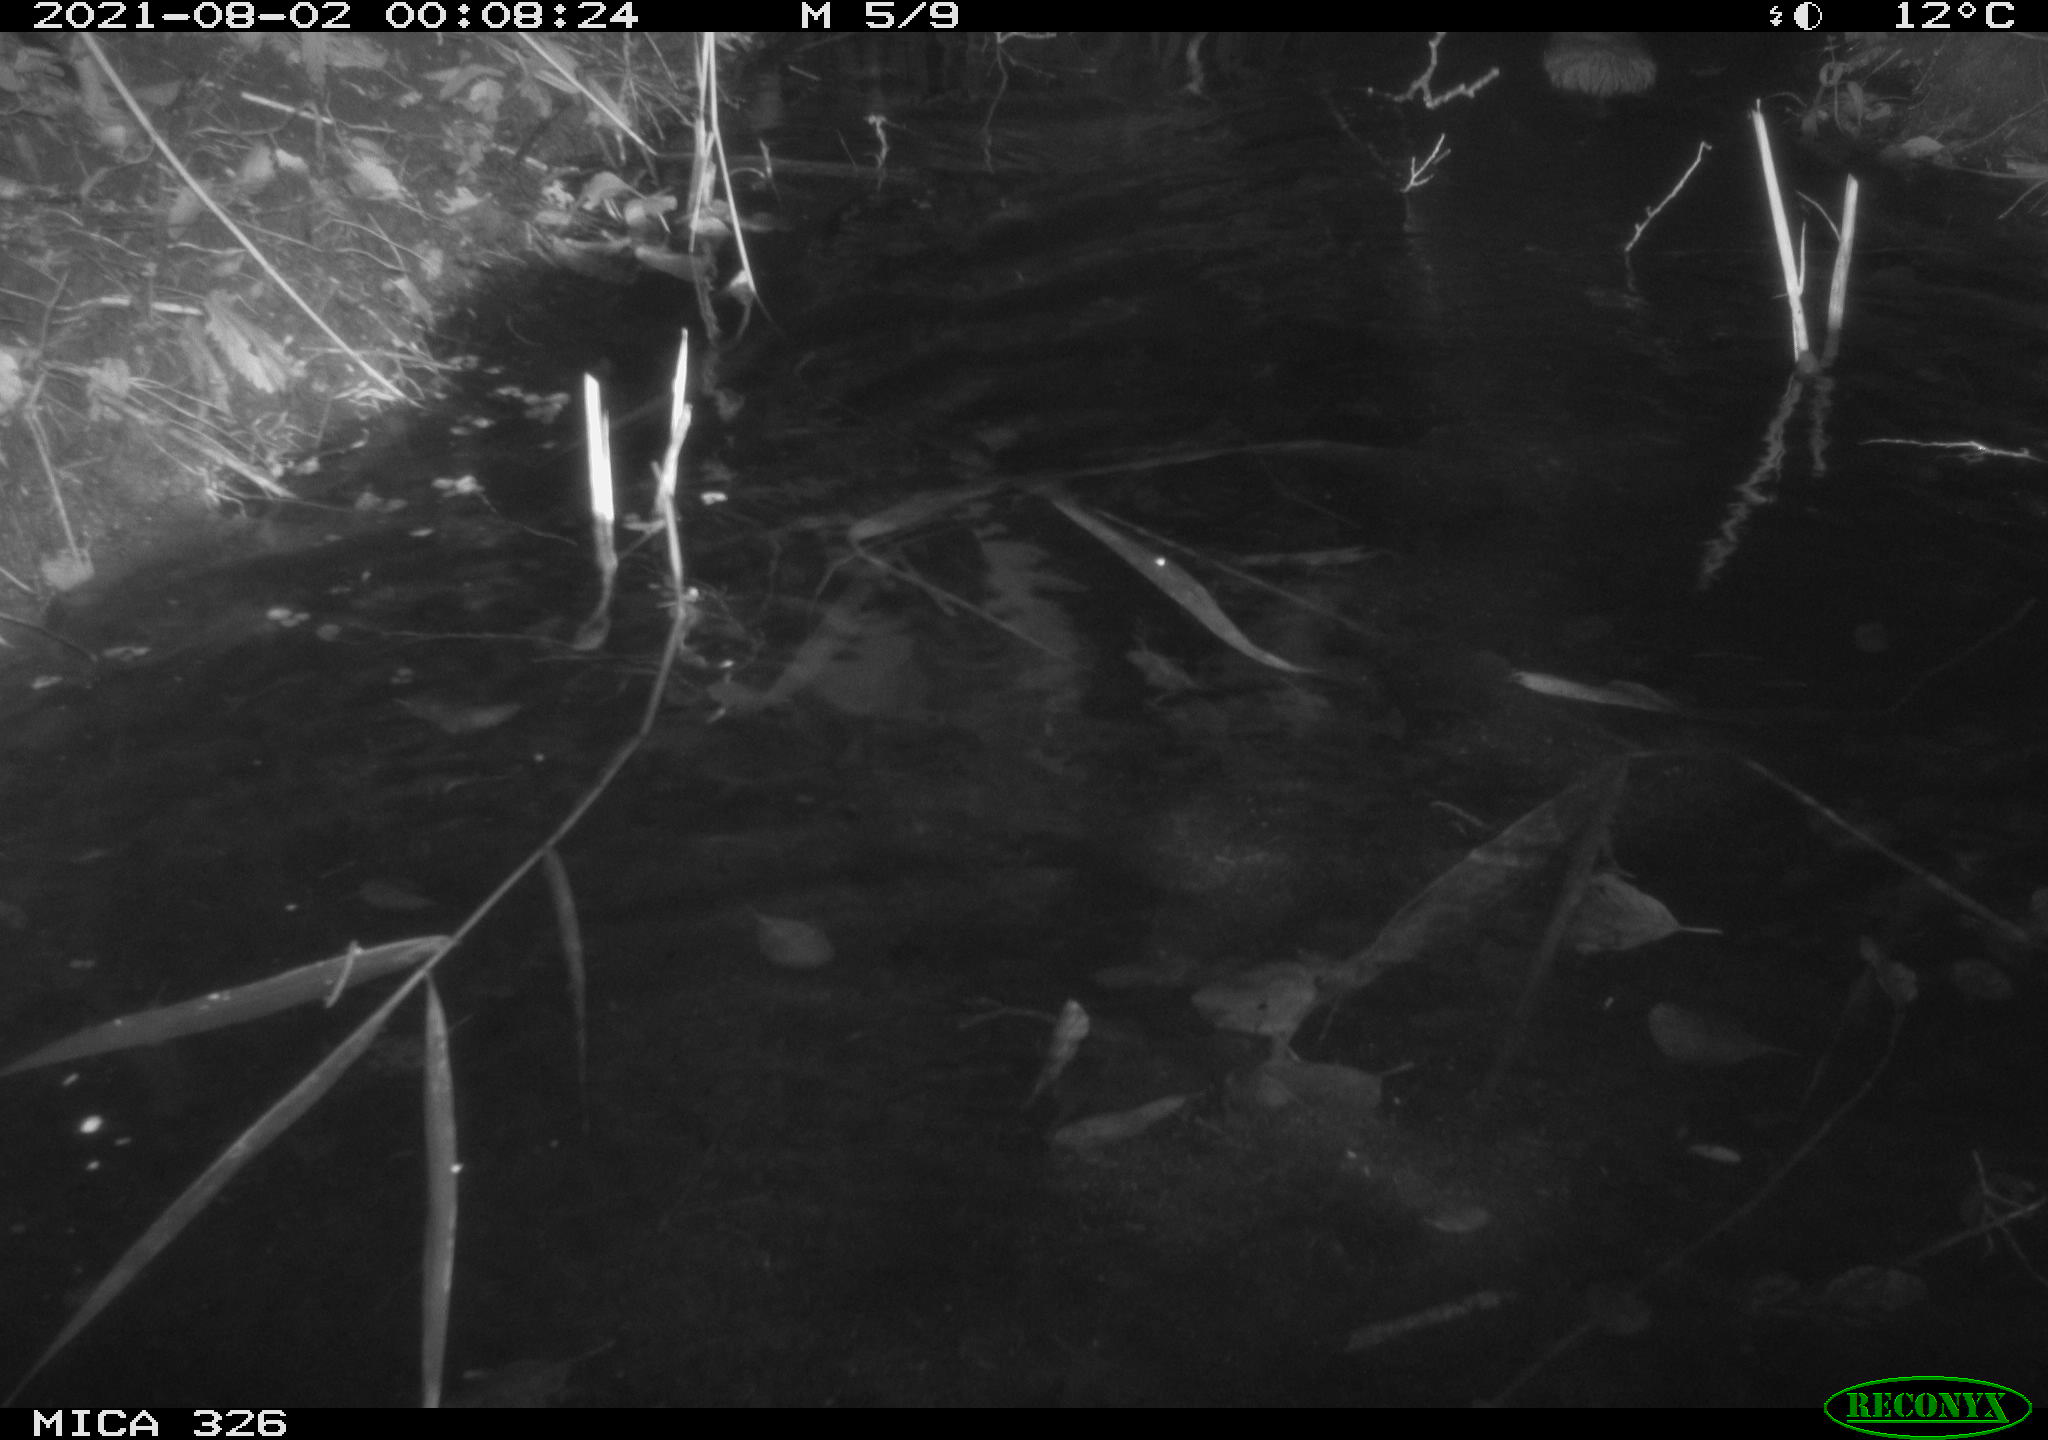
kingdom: Animalia
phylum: Chordata
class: Mammalia
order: Rodentia
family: Cricetidae
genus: Ondatra
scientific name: Ondatra zibethicus
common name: Muskrat
